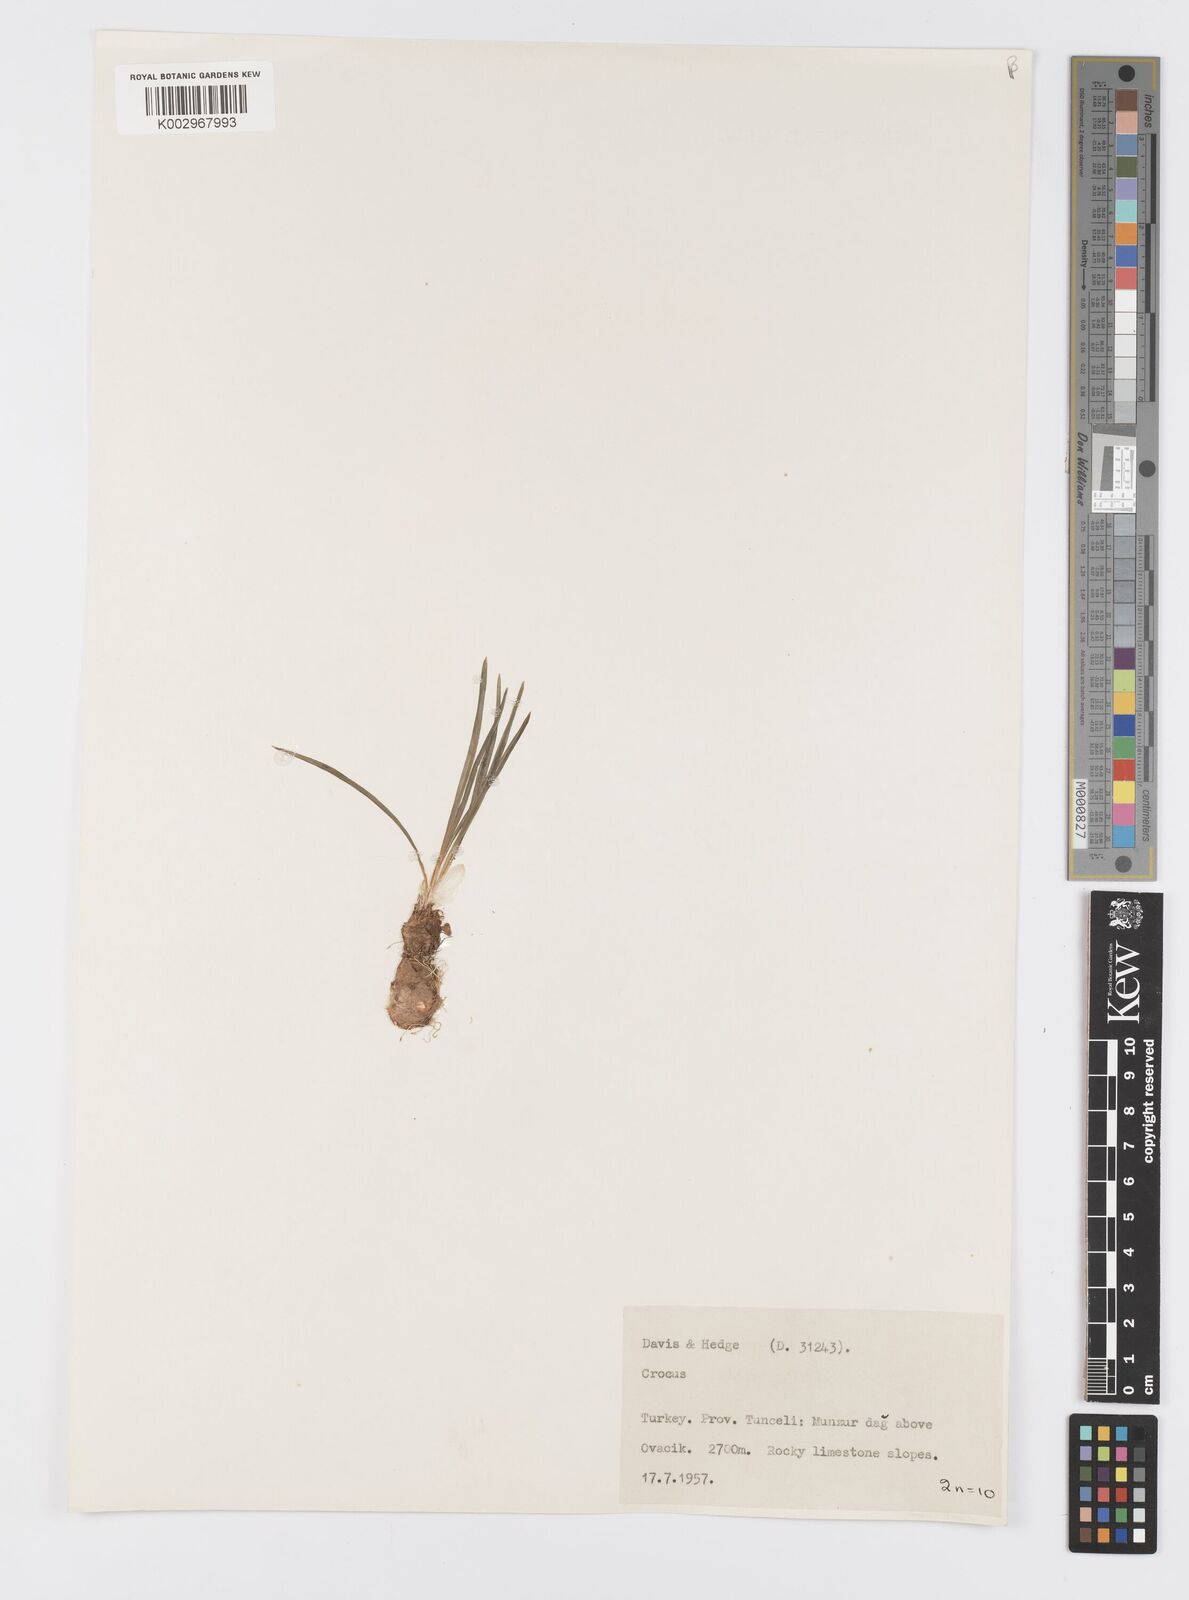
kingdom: Plantae
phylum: Tracheophyta
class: Liliopsida
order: Asparagales
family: Iridaceae
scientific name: Iridaceae
